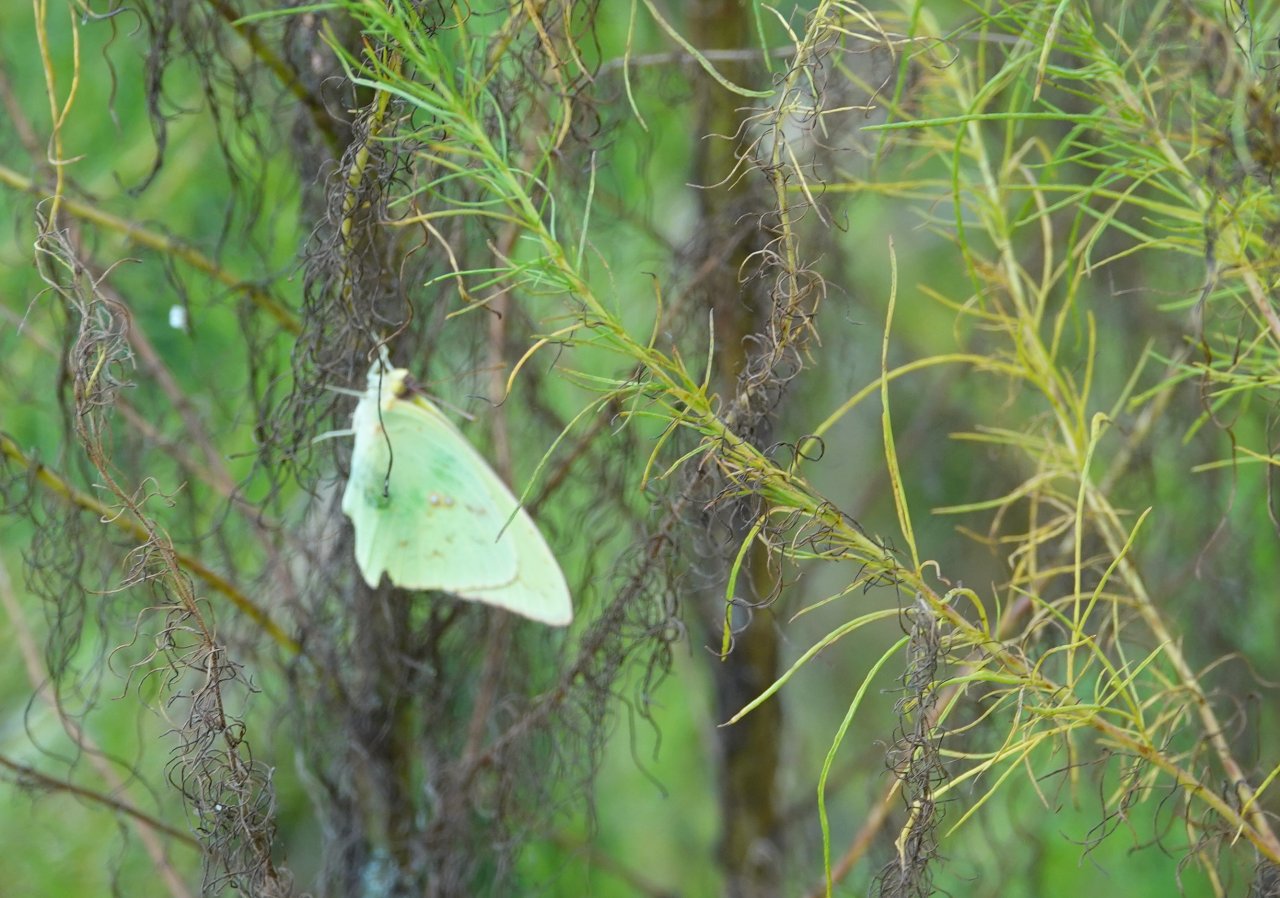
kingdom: Animalia
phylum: Arthropoda
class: Insecta
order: Lepidoptera
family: Pieridae
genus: Phoebis
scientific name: Phoebis sennae
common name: Cloudless Sulphur
